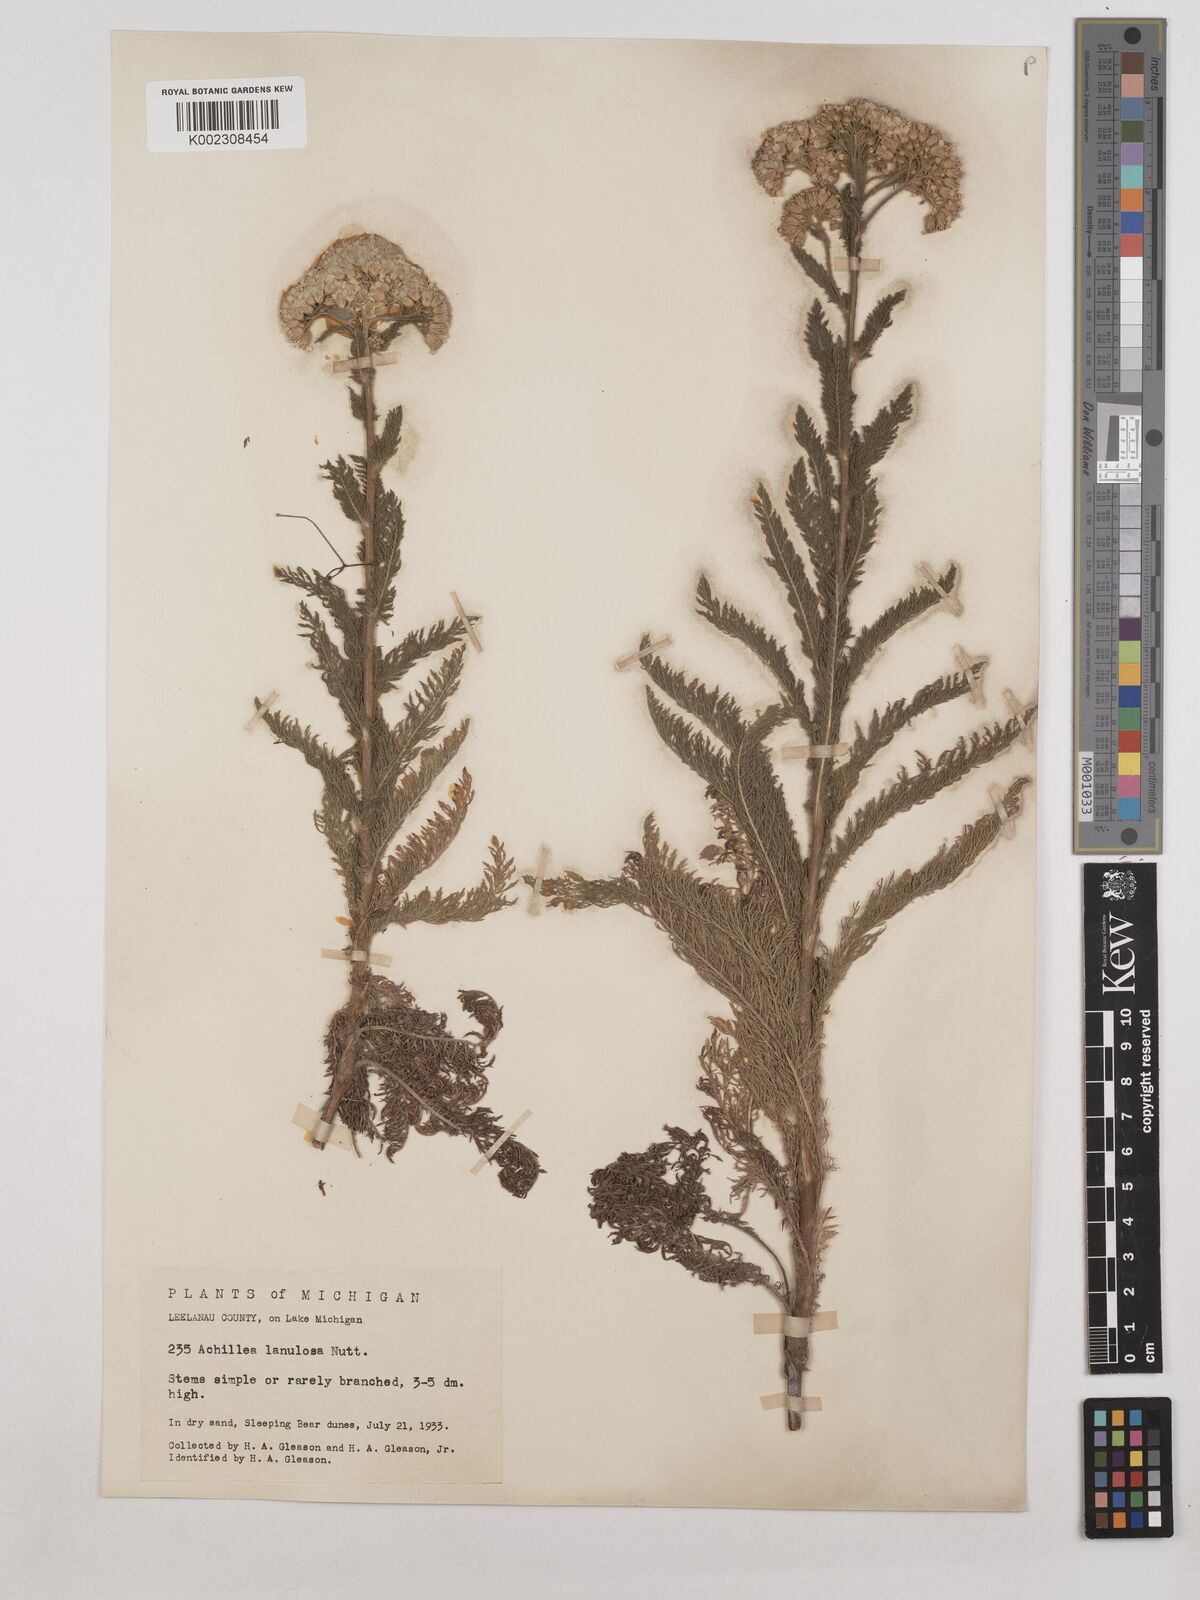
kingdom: Plantae
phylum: Tracheophyta
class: Magnoliopsida
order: Asterales
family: Asteraceae
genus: Achillea
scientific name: Achillea millefolium
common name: Yarrow
